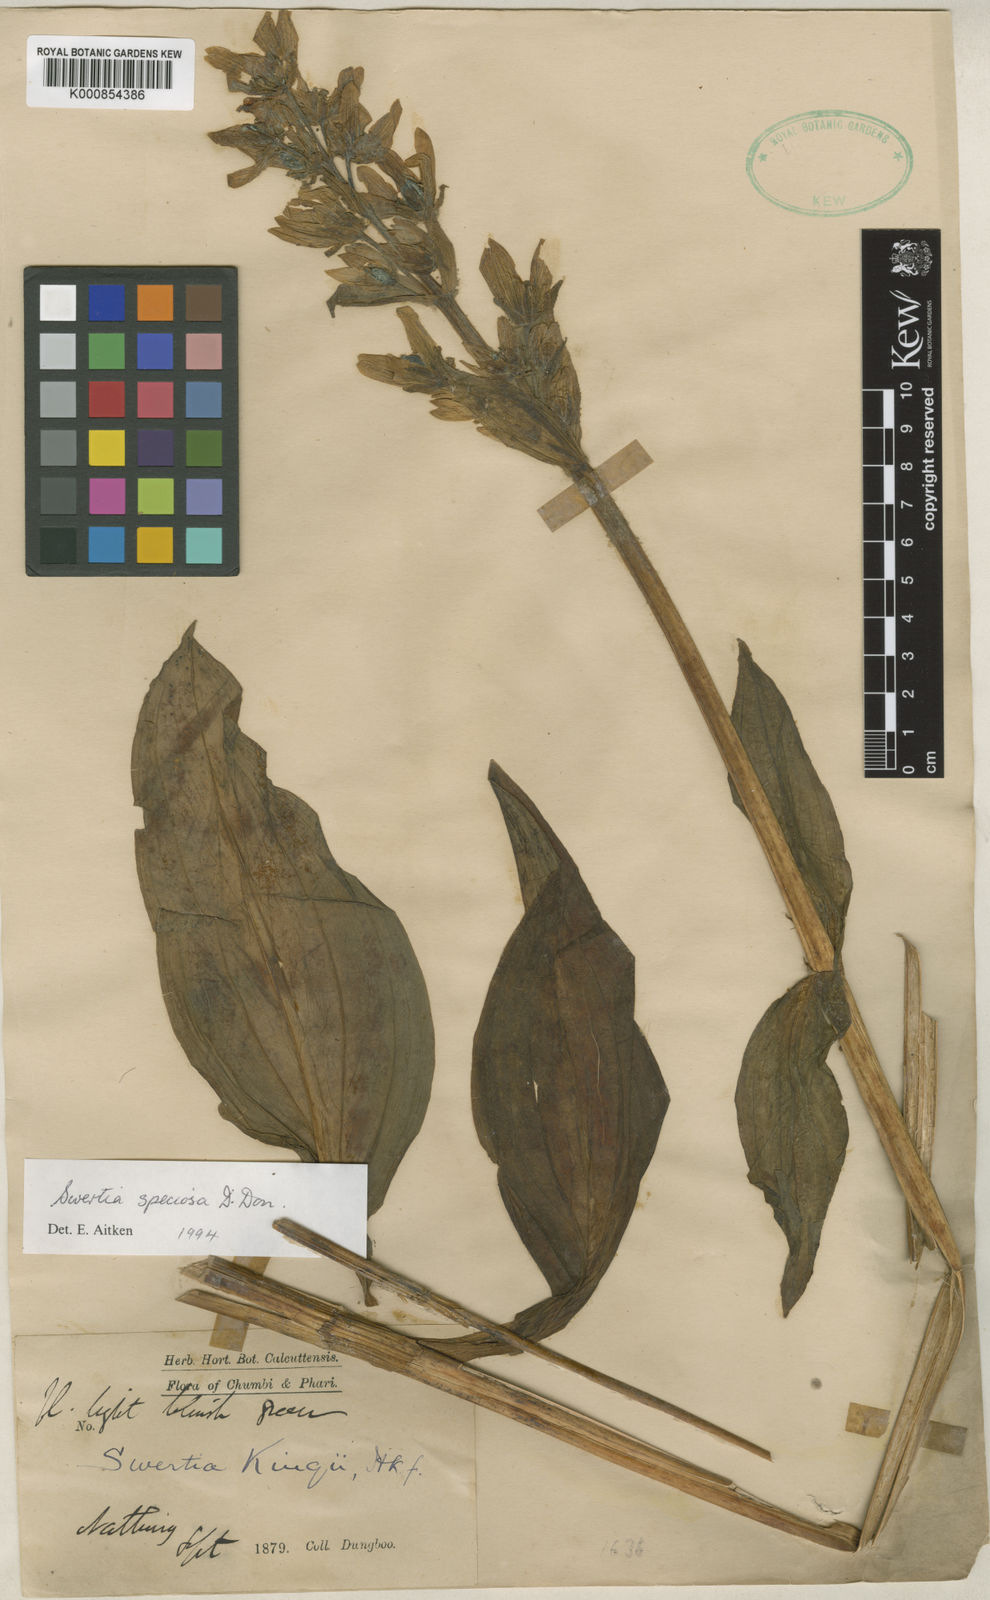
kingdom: Plantae
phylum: Tracheophyta
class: Magnoliopsida
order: Gentianales
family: Gentianaceae
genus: Swertia
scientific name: Swertia speciosa
